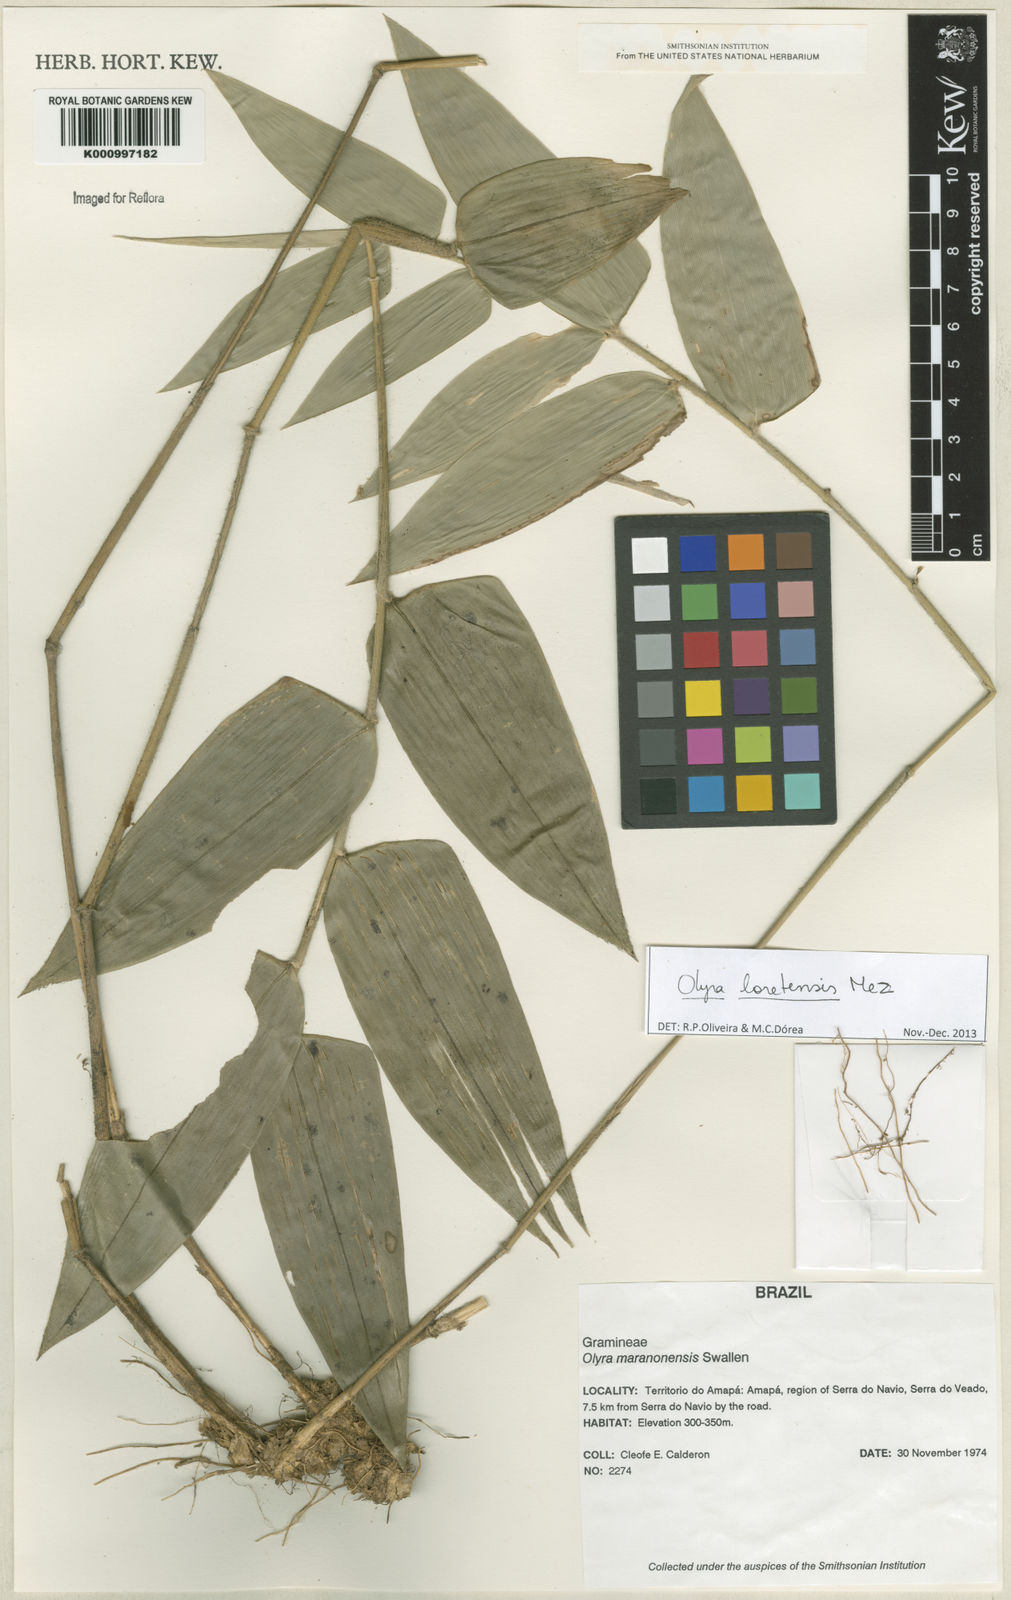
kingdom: Plantae
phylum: Tracheophyta
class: Liliopsida
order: Poales
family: Poaceae
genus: Olyra
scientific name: Olyra loretensis
